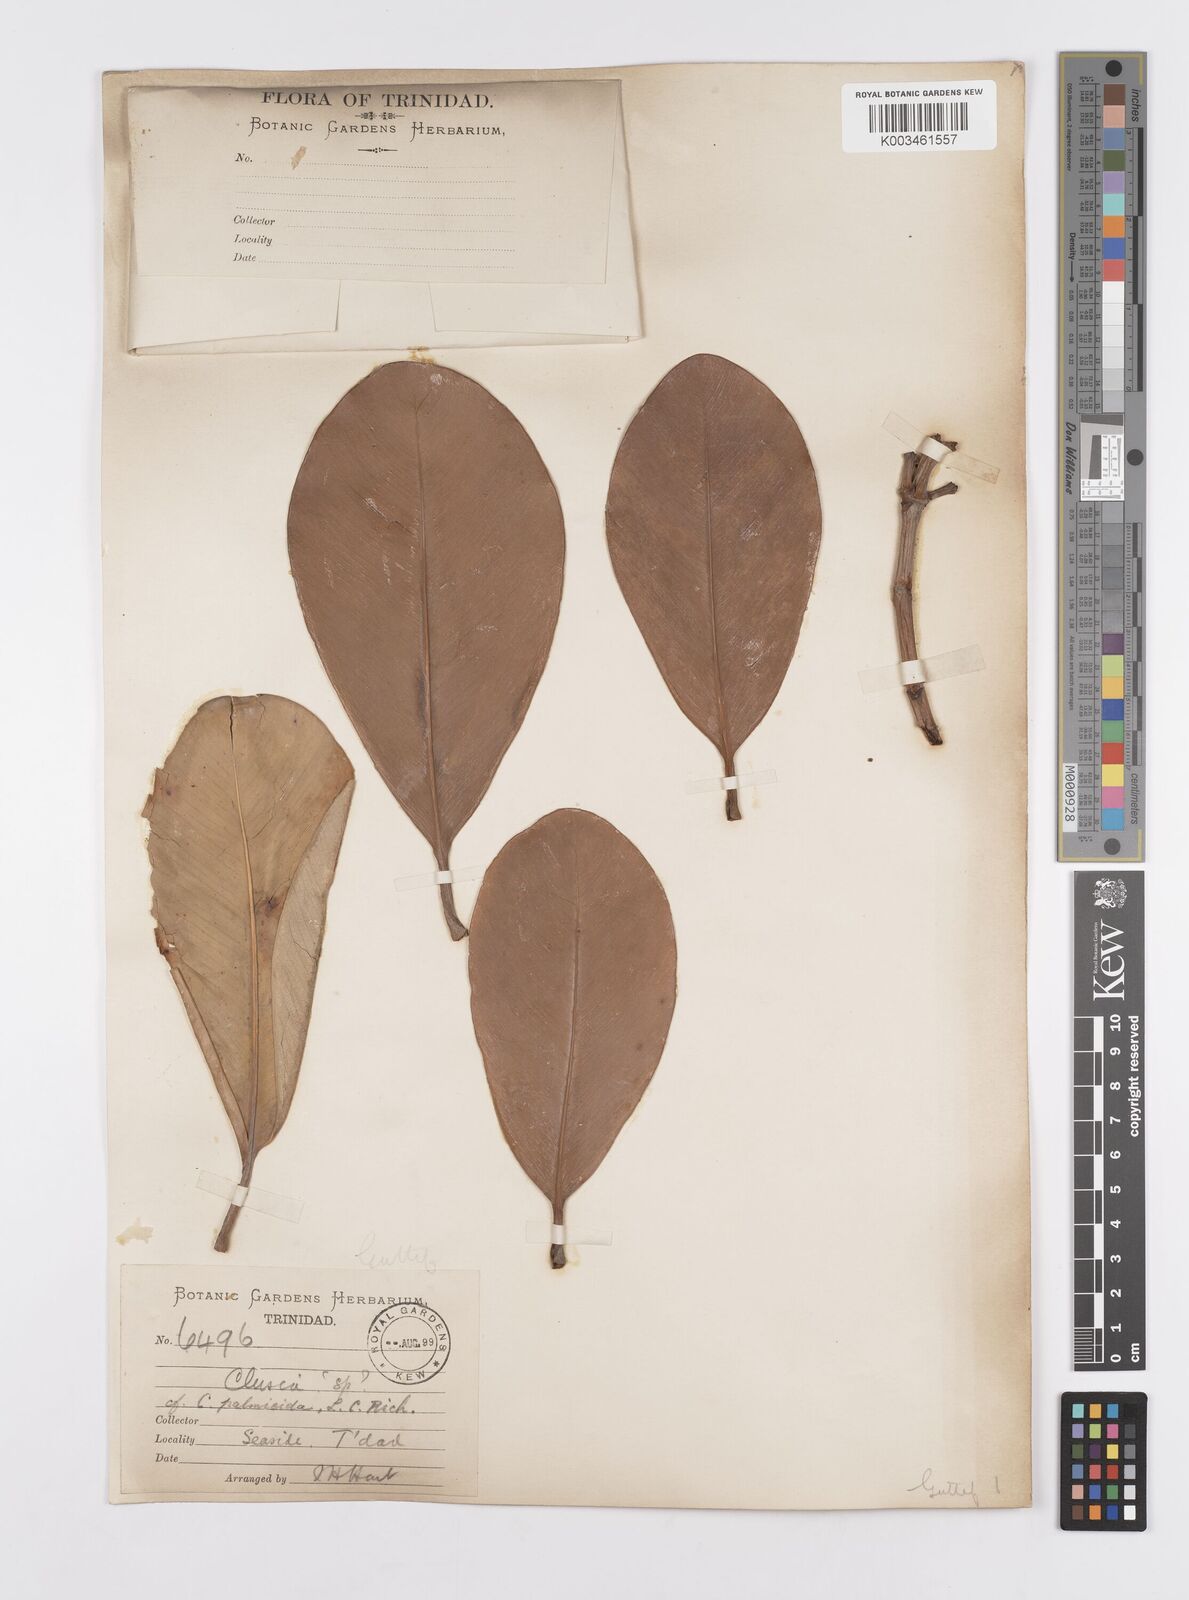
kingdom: Plantae
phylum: Tracheophyta
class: Magnoliopsida
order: Malpighiales
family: Clusiaceae
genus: Clusia
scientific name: Clusia palmicida
